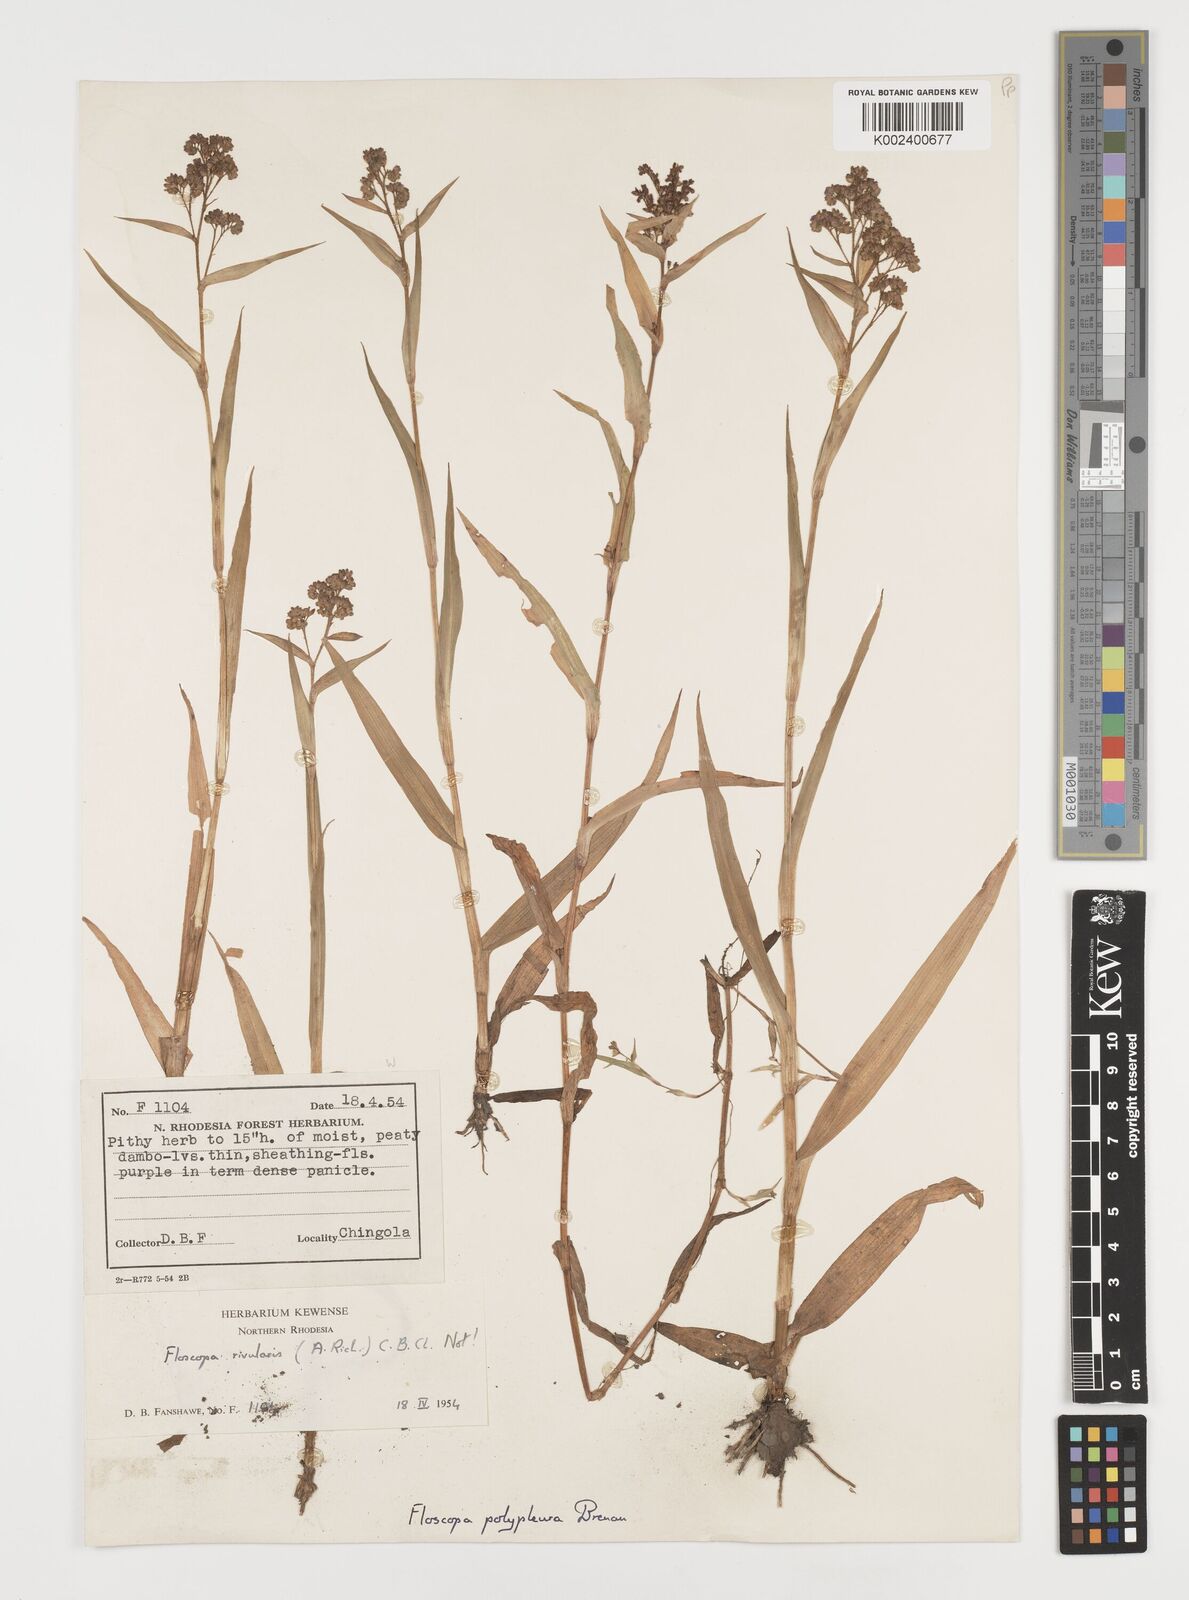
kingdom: Plantae
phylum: Tracheophyta
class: Liliopsida
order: Commelinales
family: Commelinaceae
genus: Floscopa
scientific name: Floscopa polypleura
